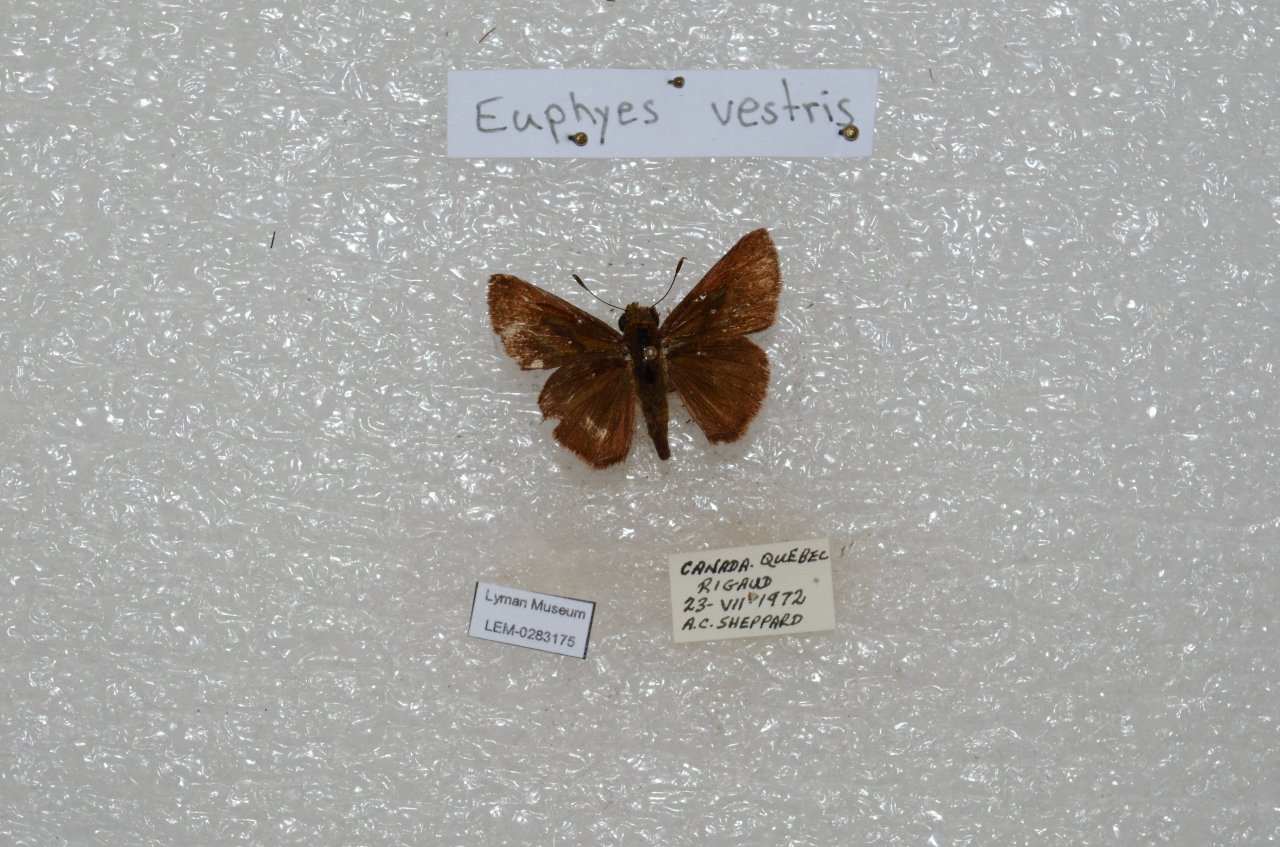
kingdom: Animalia
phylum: Arthropoda
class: Insecta
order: Lepidoptera
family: Hesperiidae
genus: Euphyes
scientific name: Euphyes vestris
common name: Dun Skipper
